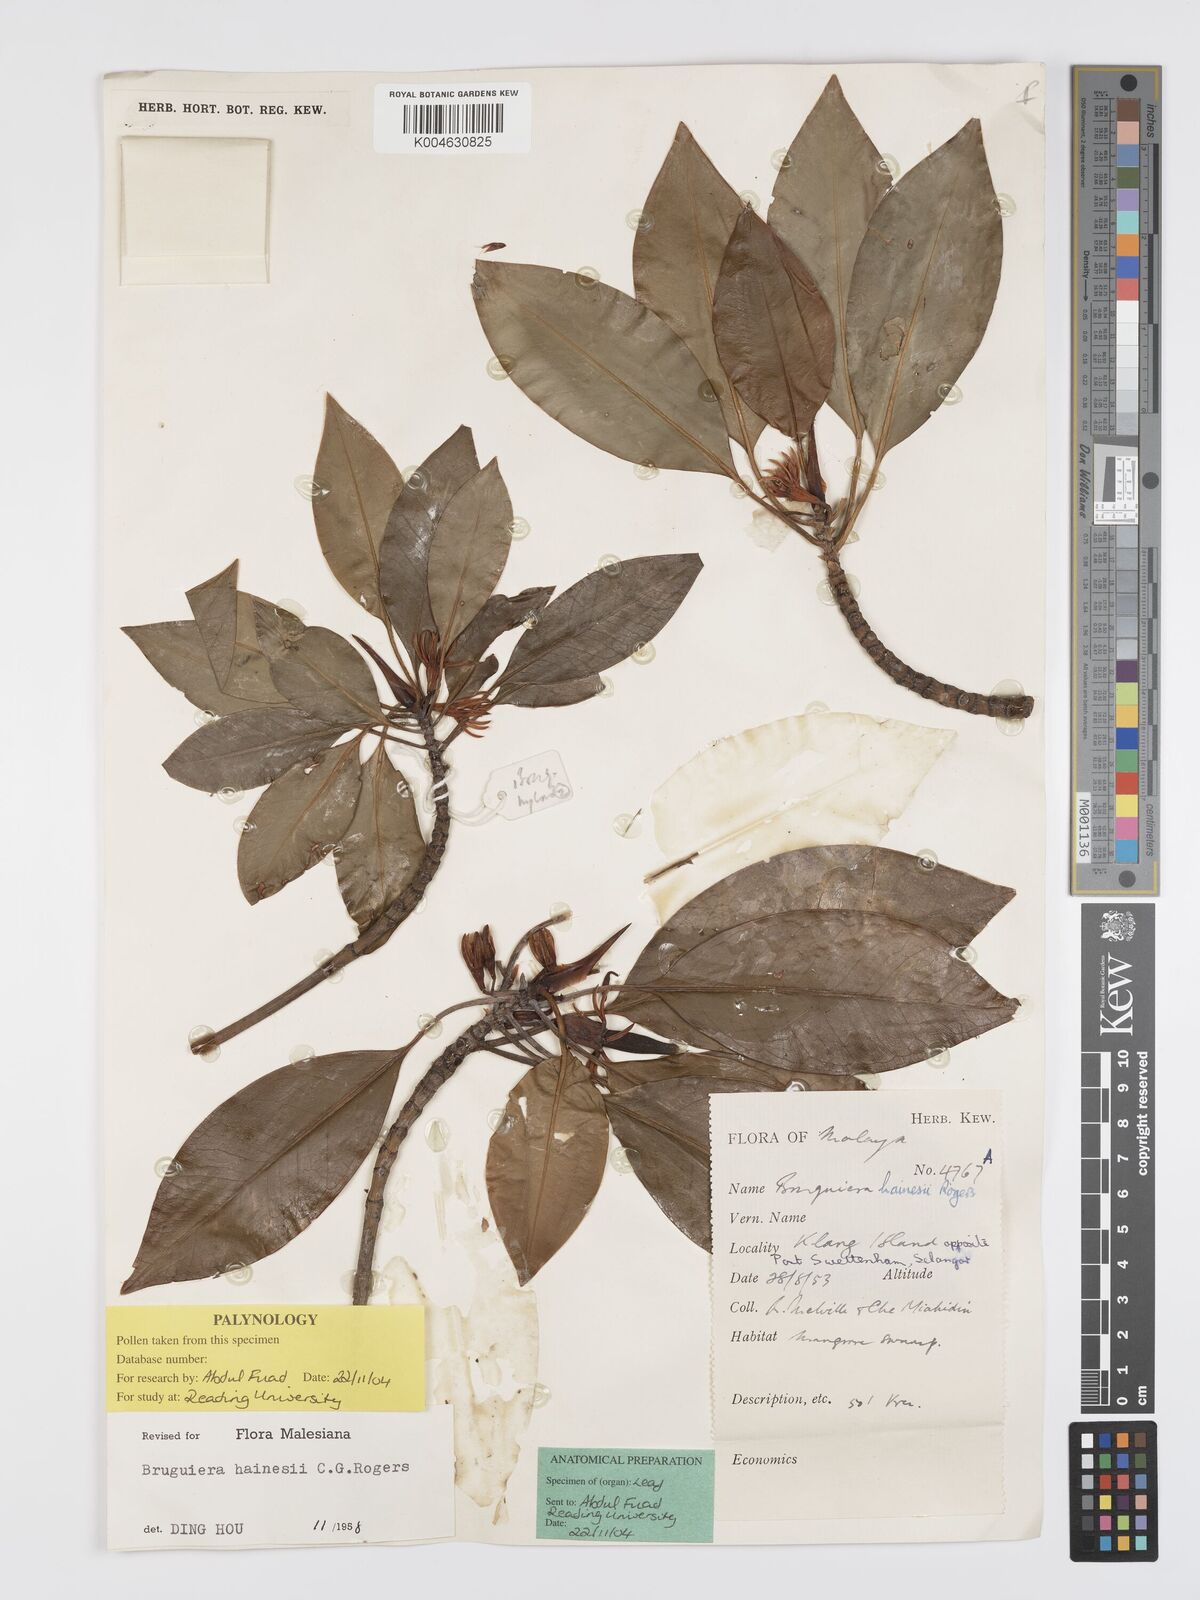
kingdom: Plantae
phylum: Tracheophyta
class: Magnoliopsida
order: Malpighiales
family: Rhizophoraceae
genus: Bruguiera
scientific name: Bruguiera hainesii
